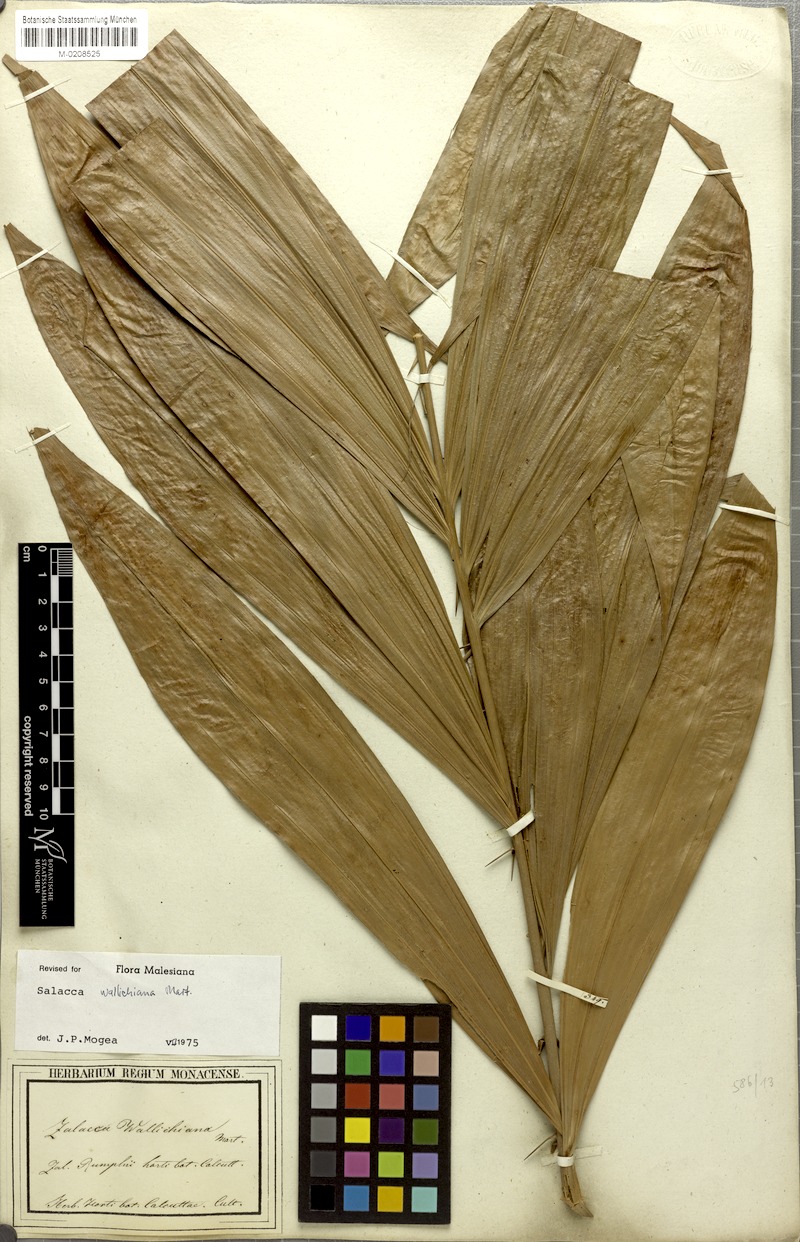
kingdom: Plantae
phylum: Tracheophyta
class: Liliopsida
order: Arecales
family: Arecaceae
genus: Salacca
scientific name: Salacca wallichiana
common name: Rakum palm
